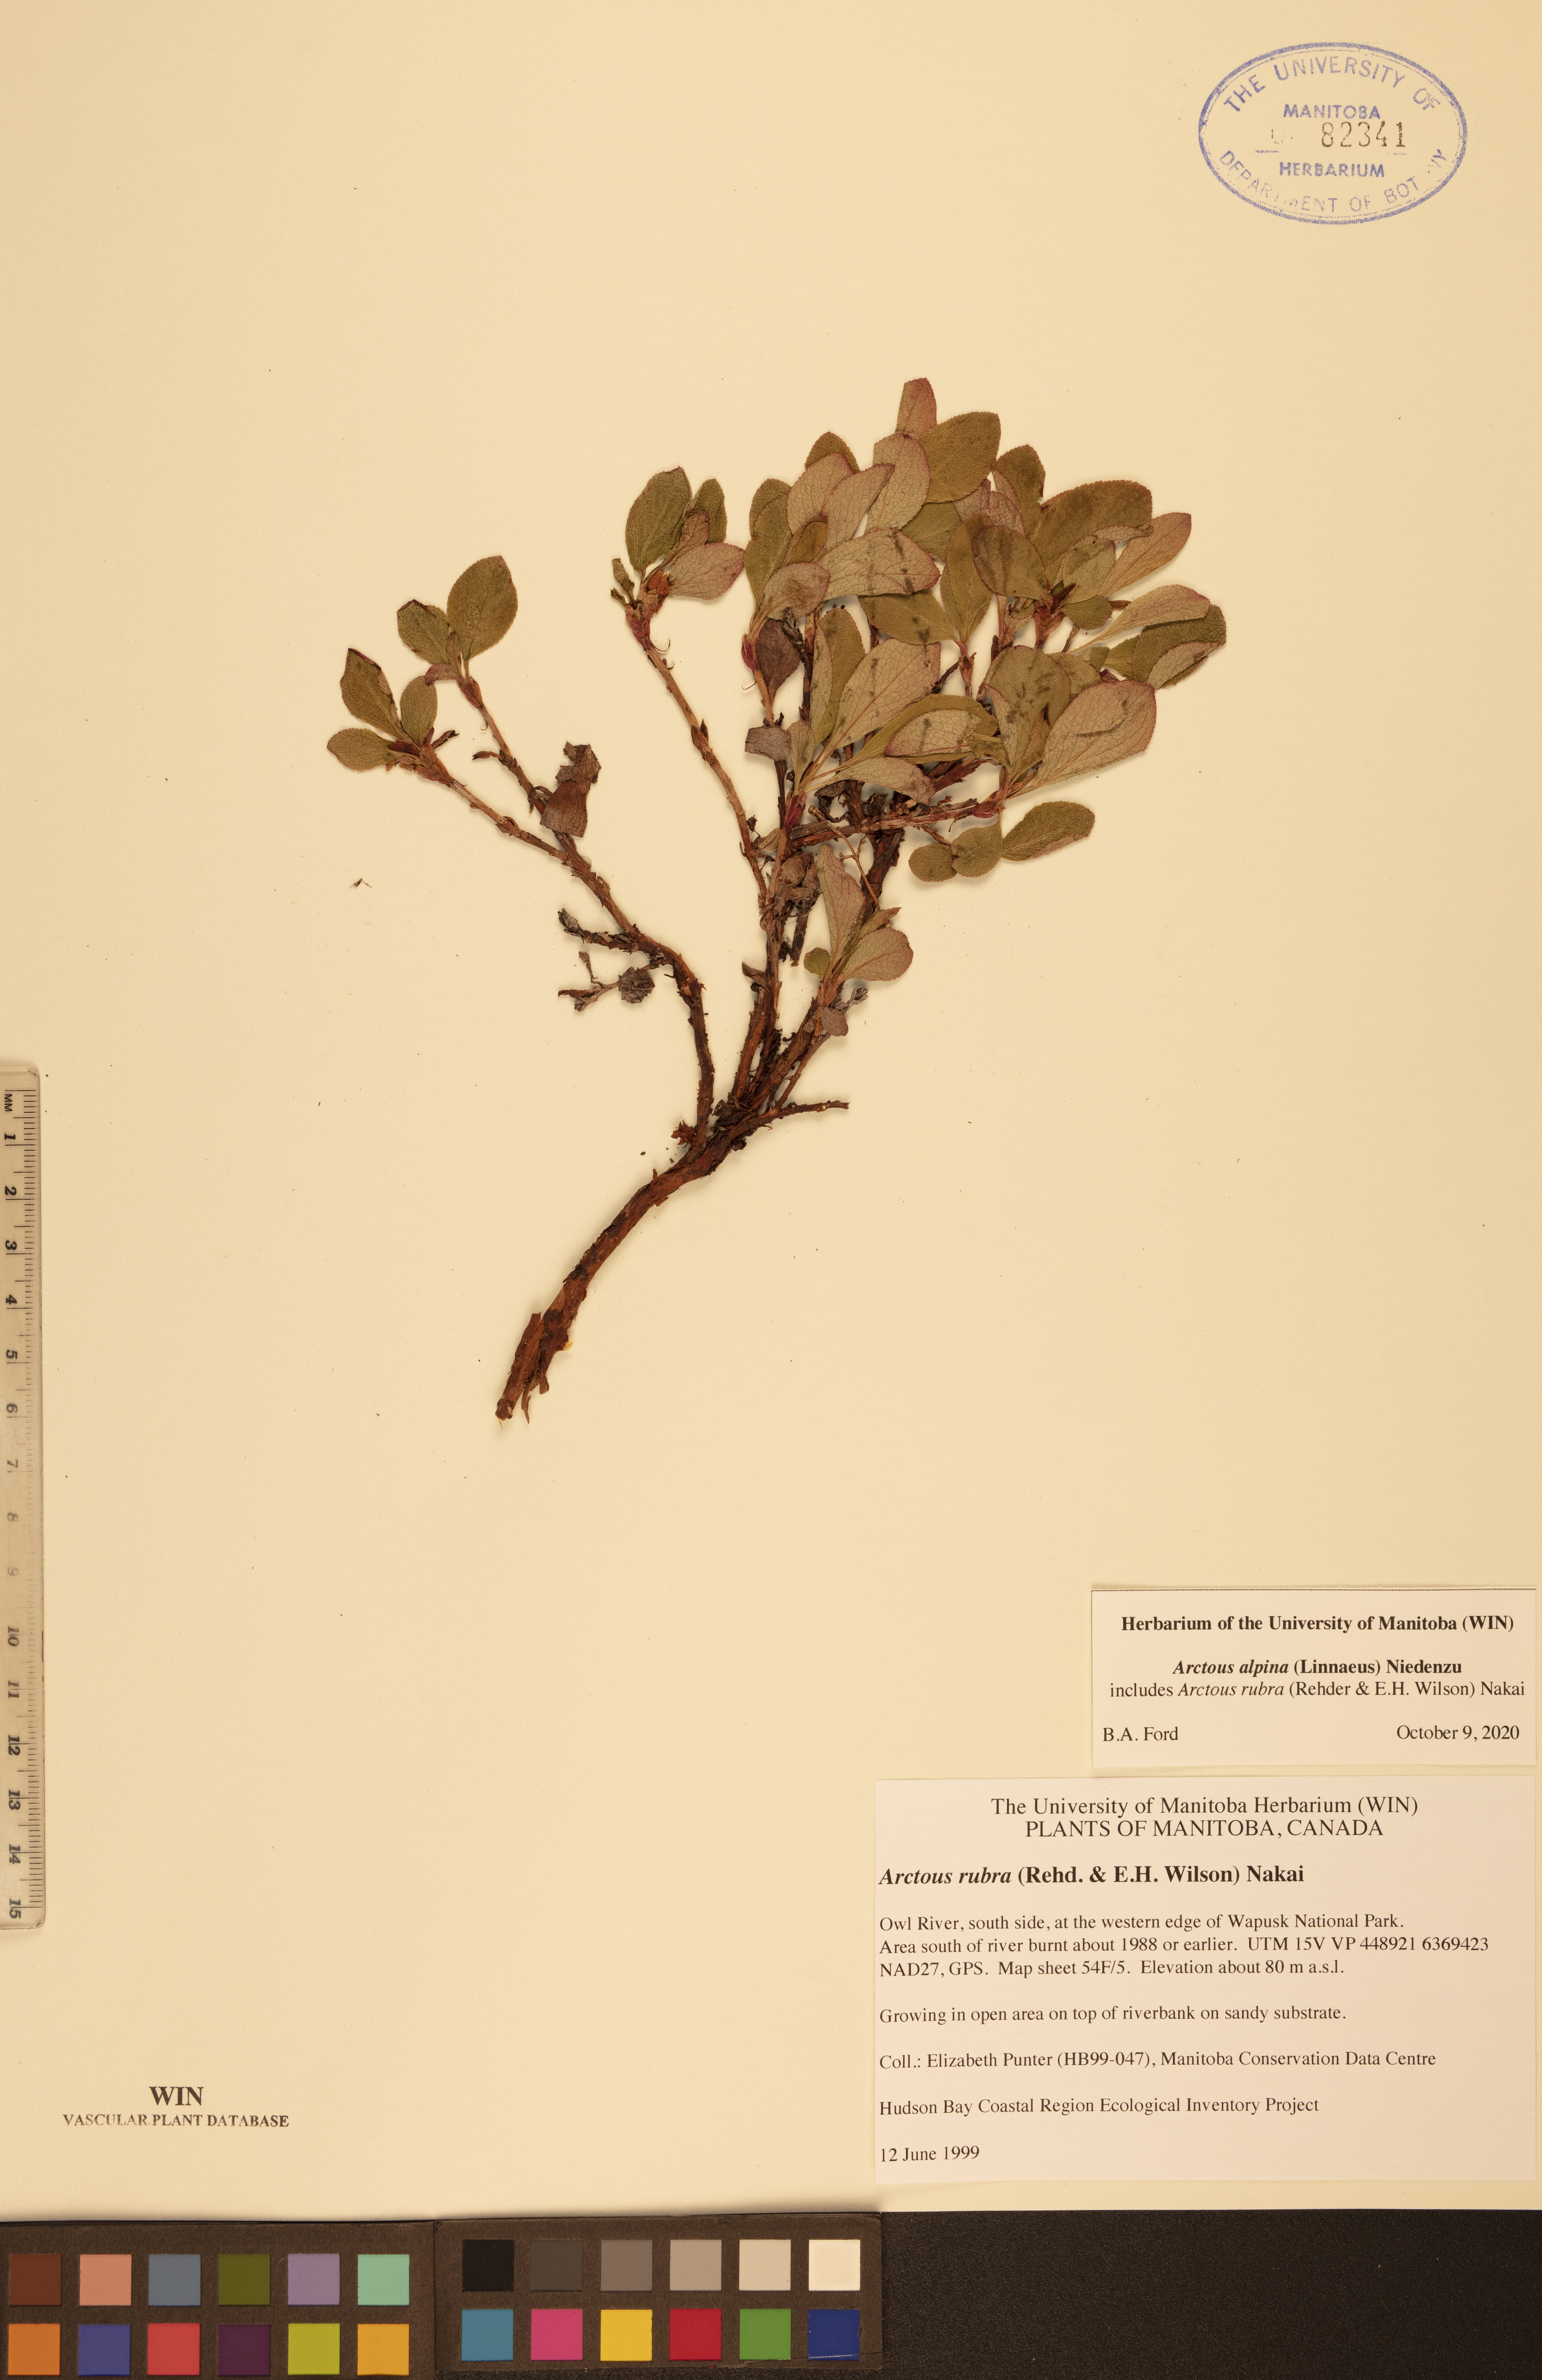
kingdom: Plantae
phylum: Tracheophyta
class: Magnoliopsida
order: Ericales
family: Ericaceae
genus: Arctostaphylos
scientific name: Arctostaphylos alpinus
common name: Alpine bearberry
